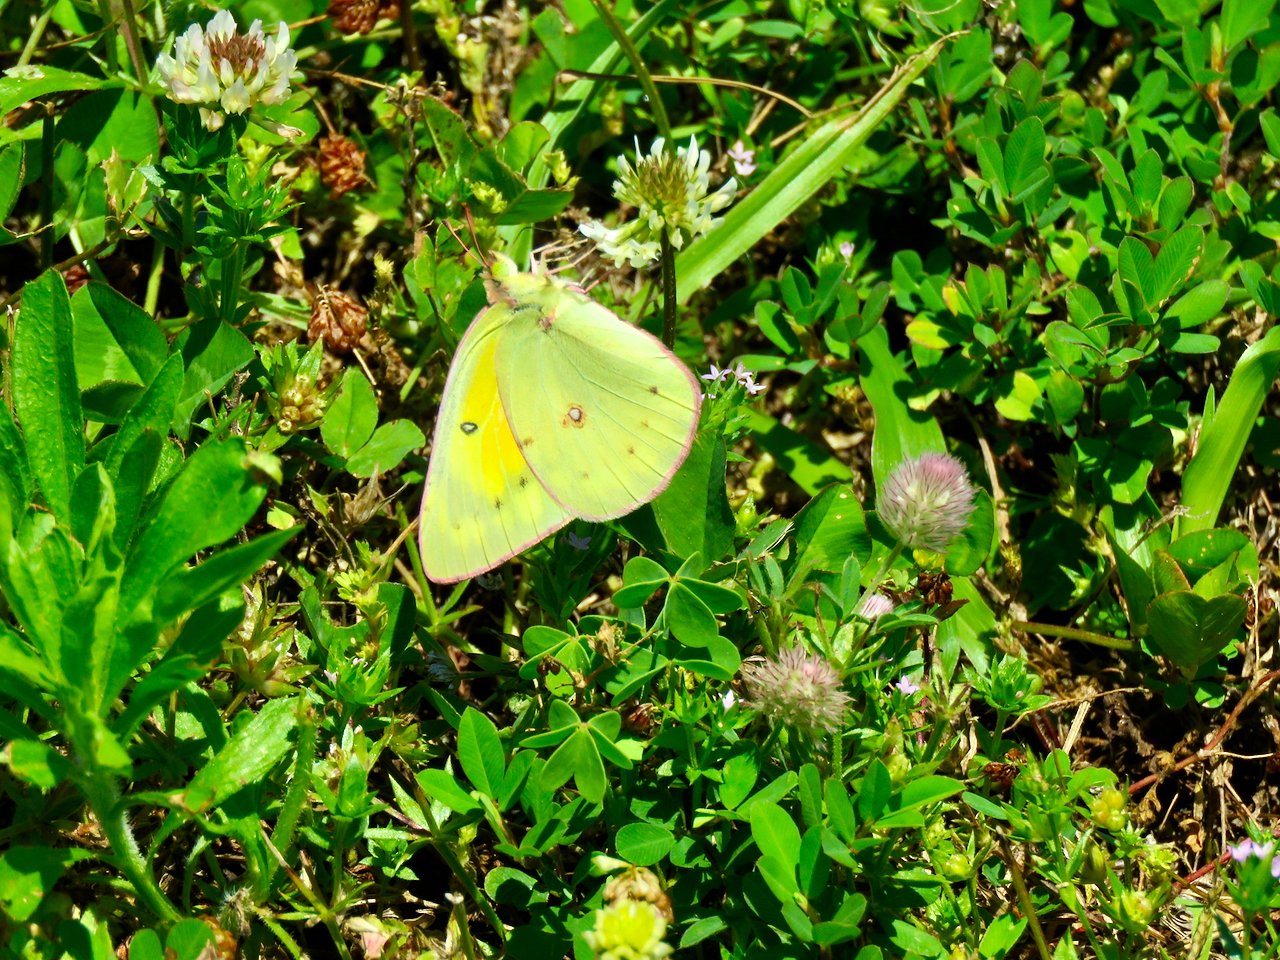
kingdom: Animalia
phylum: Arthropoda
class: Insecta
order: Lepidoptera
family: Pieridae
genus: Colias
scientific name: Colias philodice
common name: Clouded Sulphur
